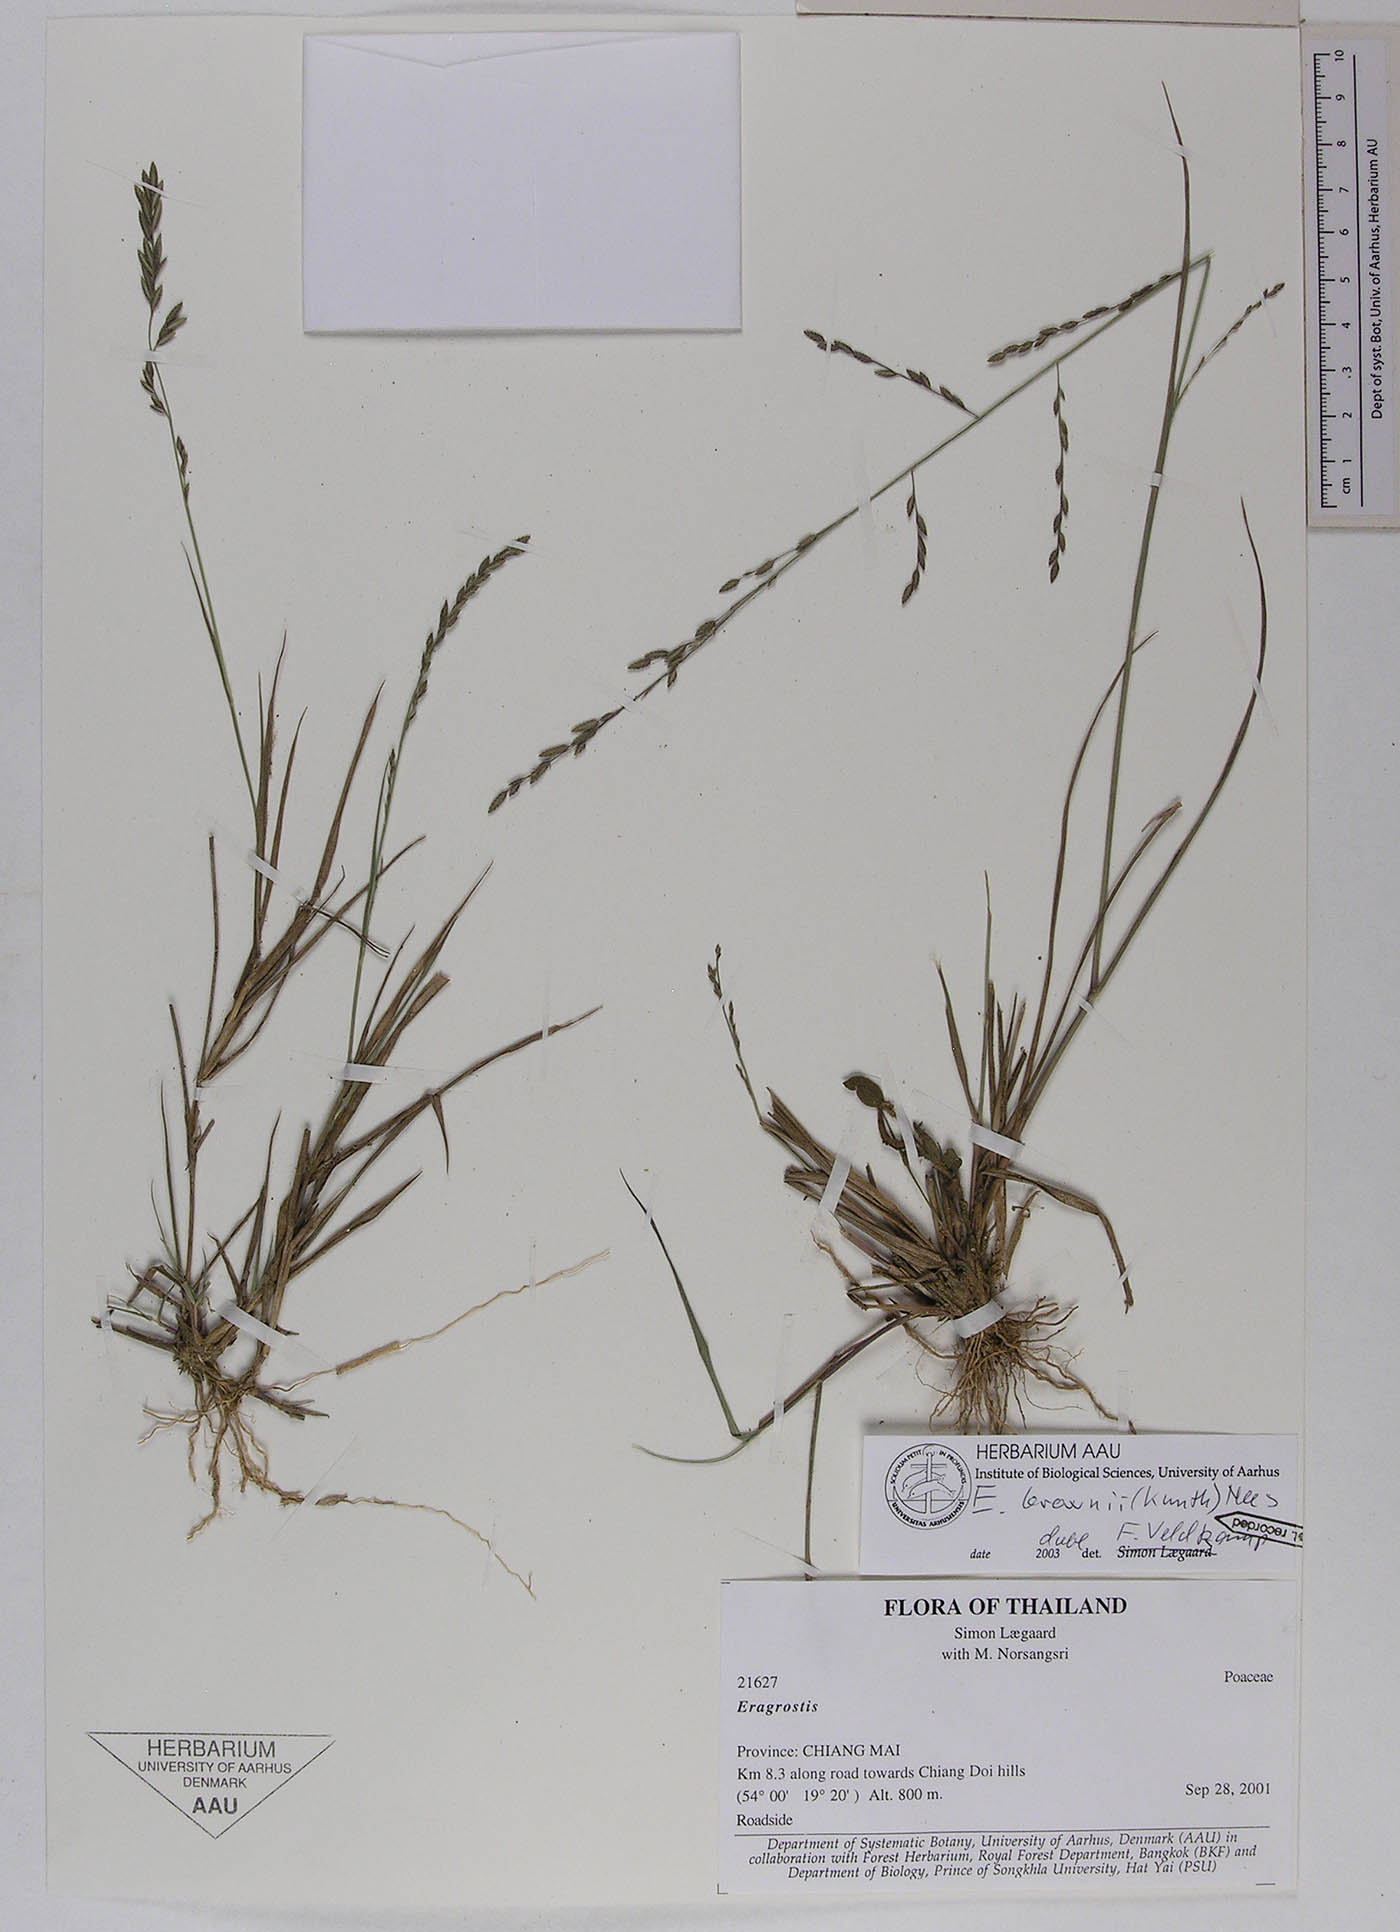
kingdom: Plantae
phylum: Tracheophyta
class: Liliopsida
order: Poales
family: Poaceae
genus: Eragrostis
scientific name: Eragrostis brownii
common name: Lovegrass
